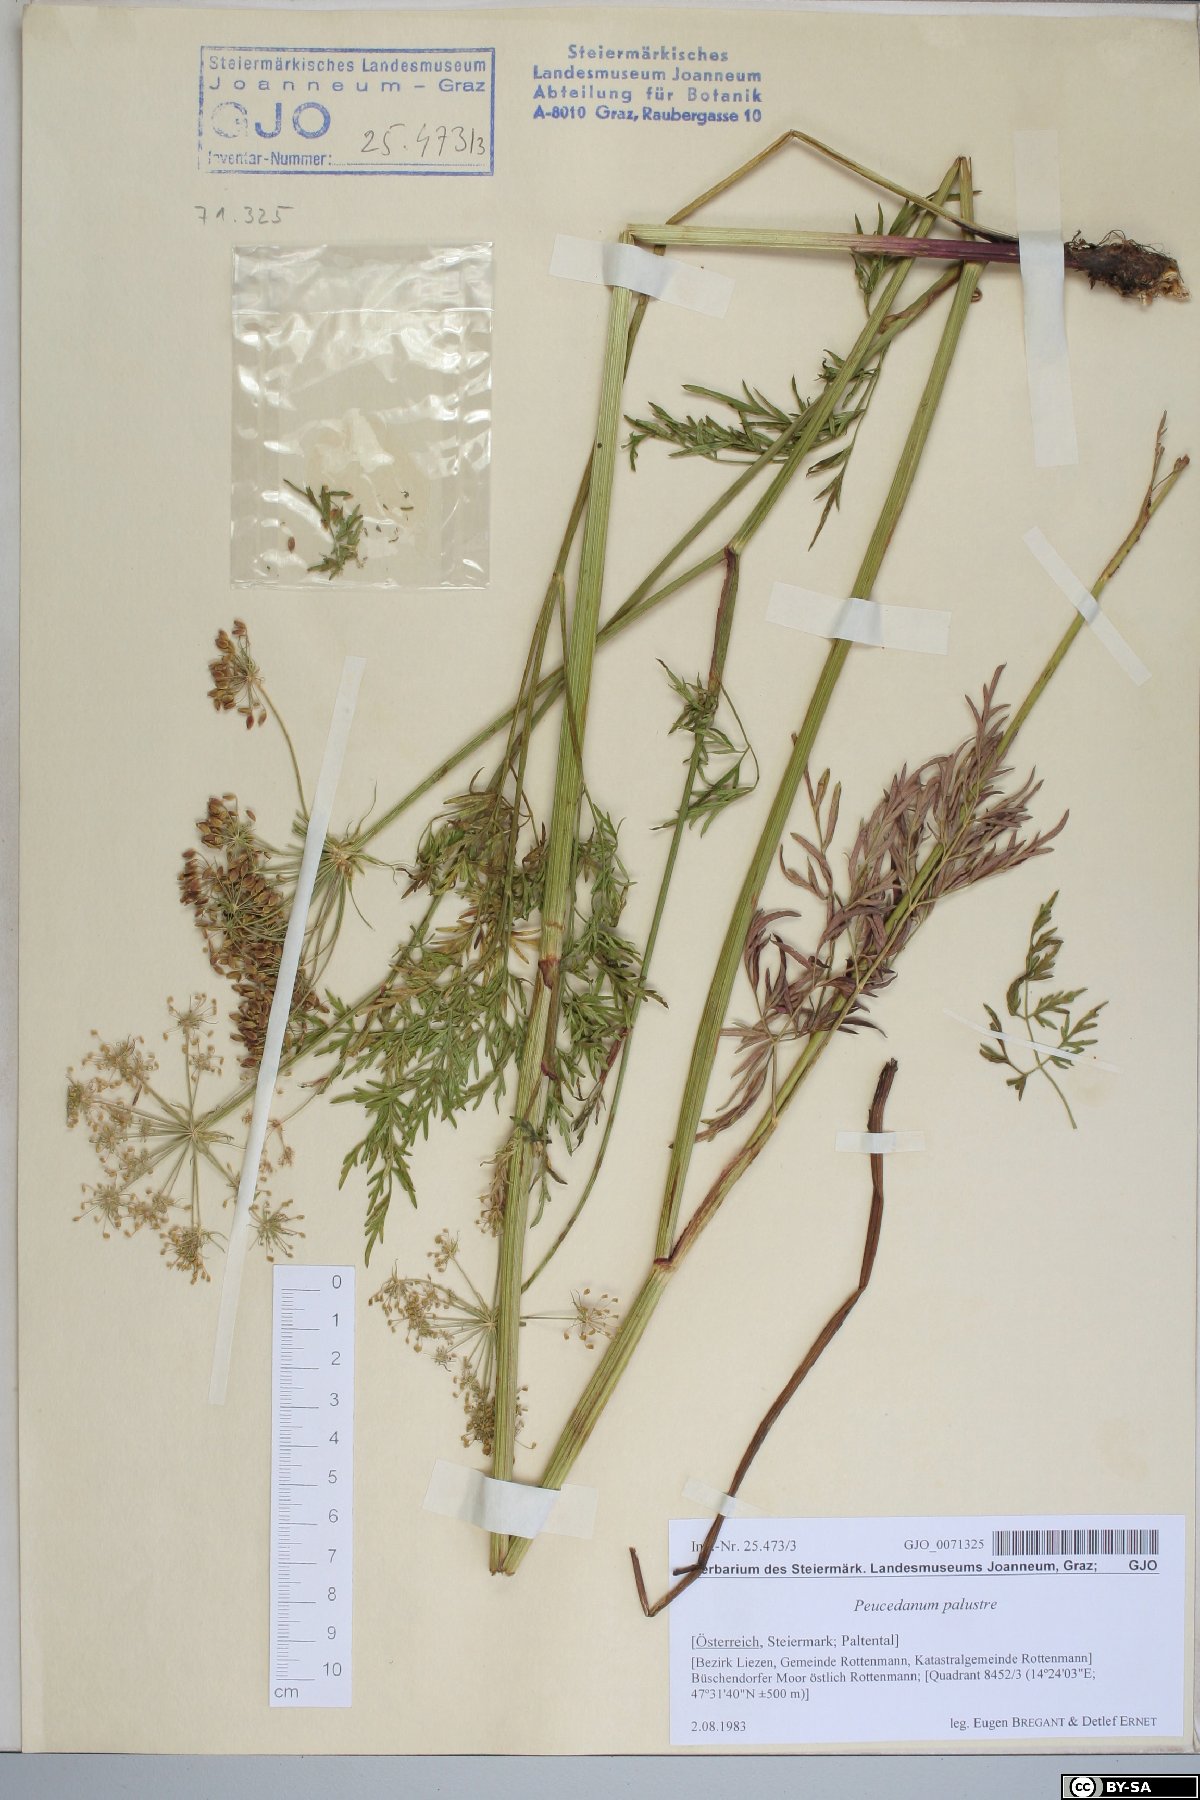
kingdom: Plantae
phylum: Tracheophyta
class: Magnoliopsida
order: Apiales
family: Apiaceae
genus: Thysselinum
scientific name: Thysselinum palustre
